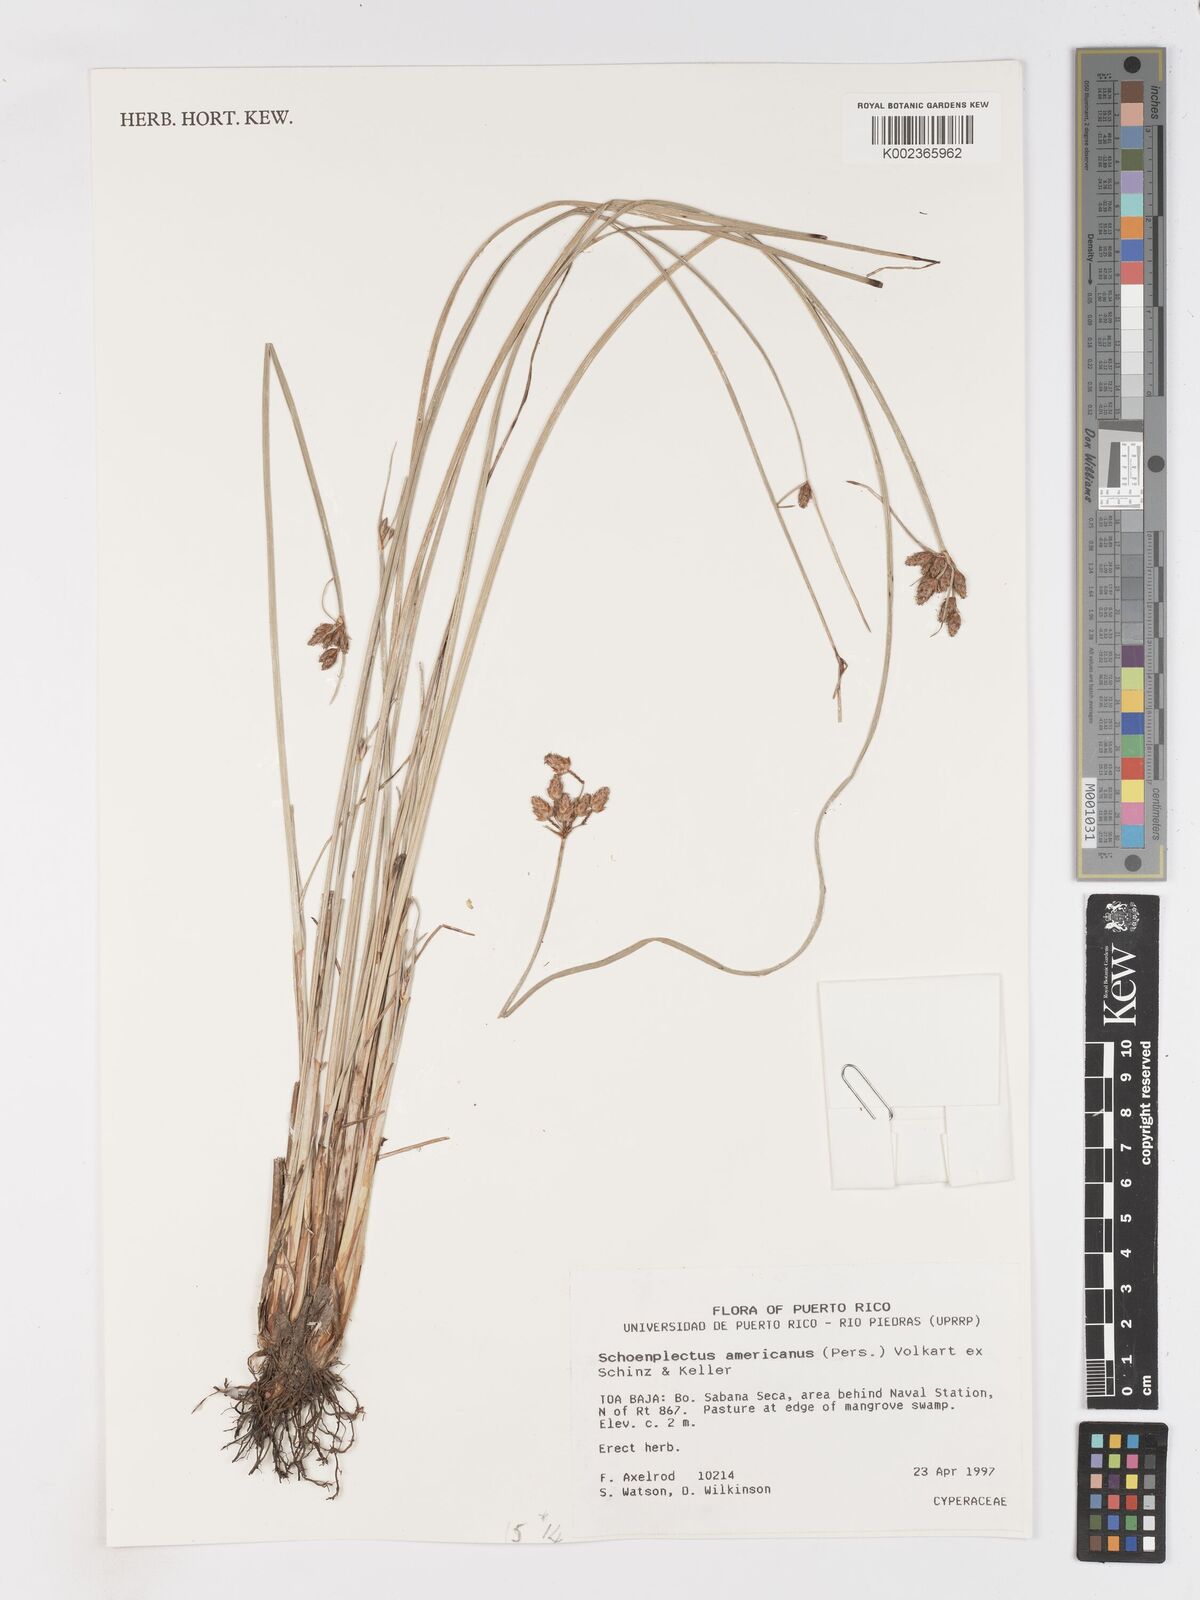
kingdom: Plantae
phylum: Tracheophyta
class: Liliopsida
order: Poales
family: Cyperaceae
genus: Schoenoplectus
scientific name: Schoenoplectus americanus
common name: American three-square bulrush
